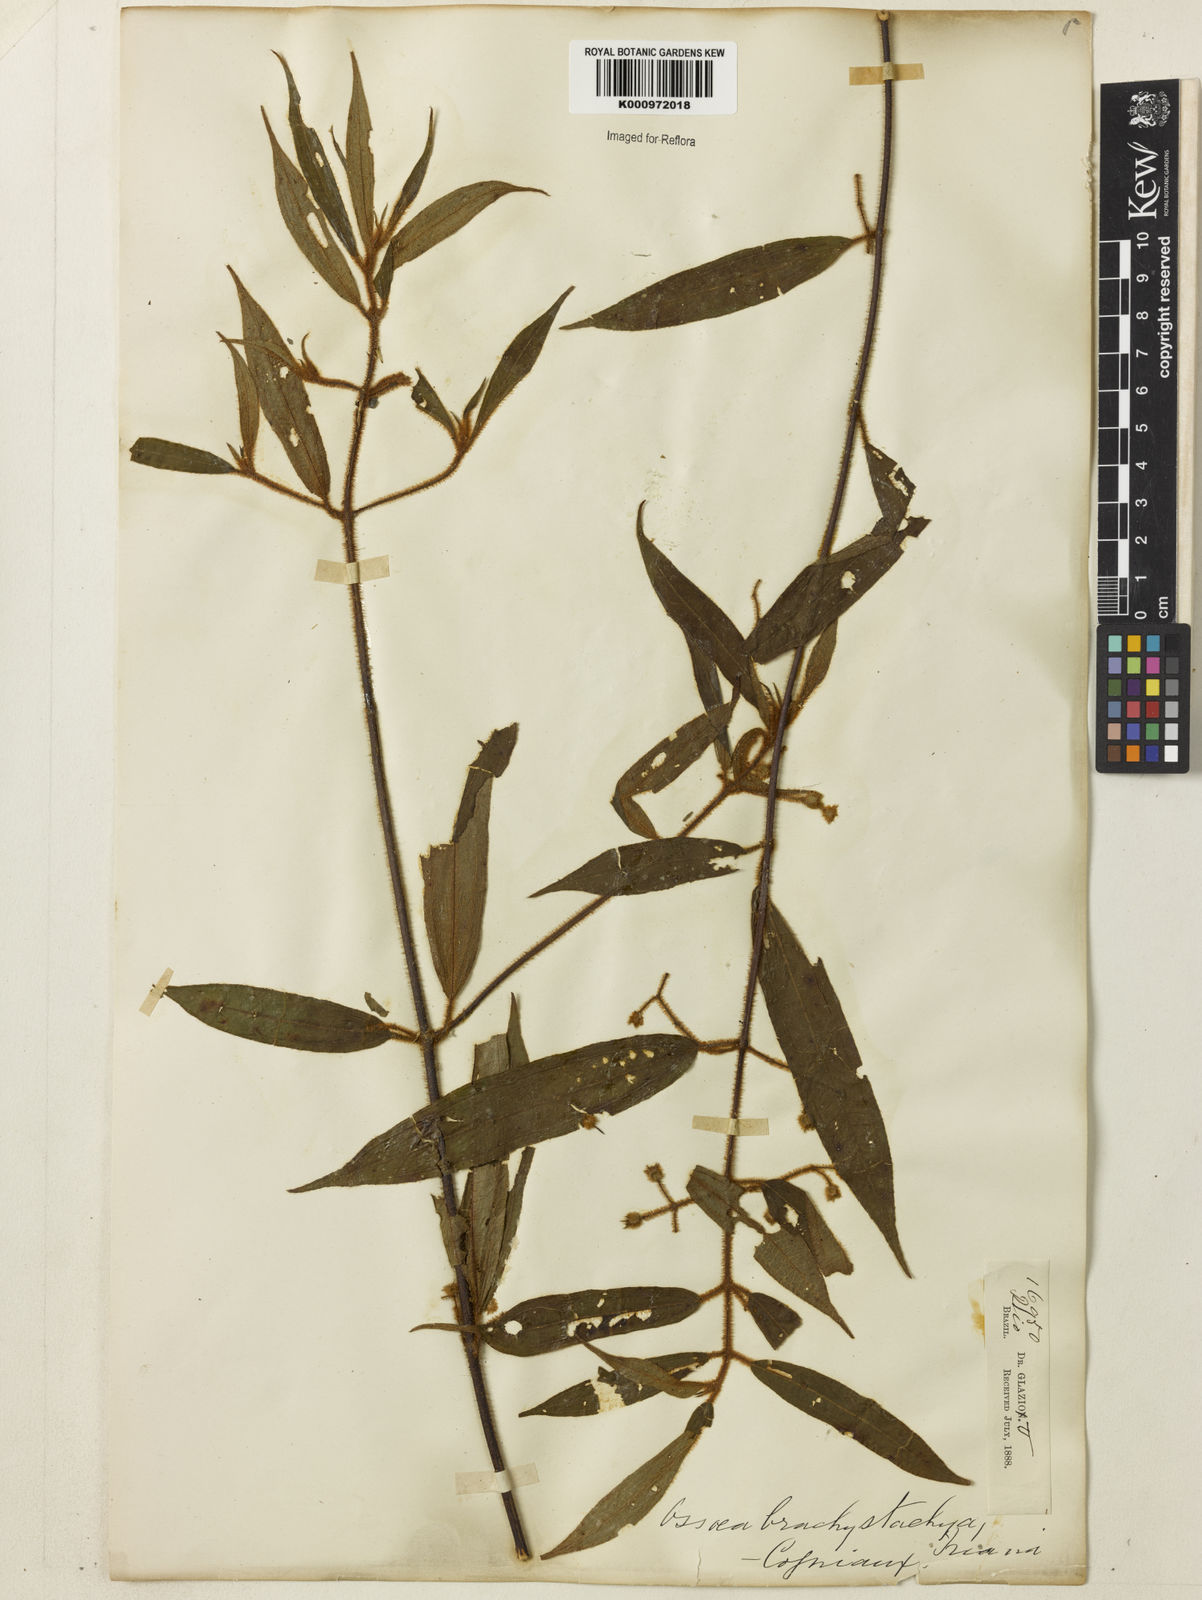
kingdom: Plantae
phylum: Tracheophyta
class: Magnoliopsida
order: Myrtales
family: Melastomataceae
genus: Miconia
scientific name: Miconia amygdaloides
